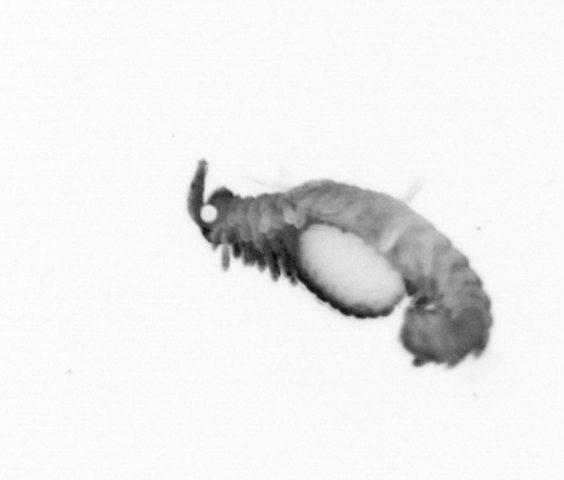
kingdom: Animalia
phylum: Annelida
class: Polychaeta
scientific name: Polychaeta
